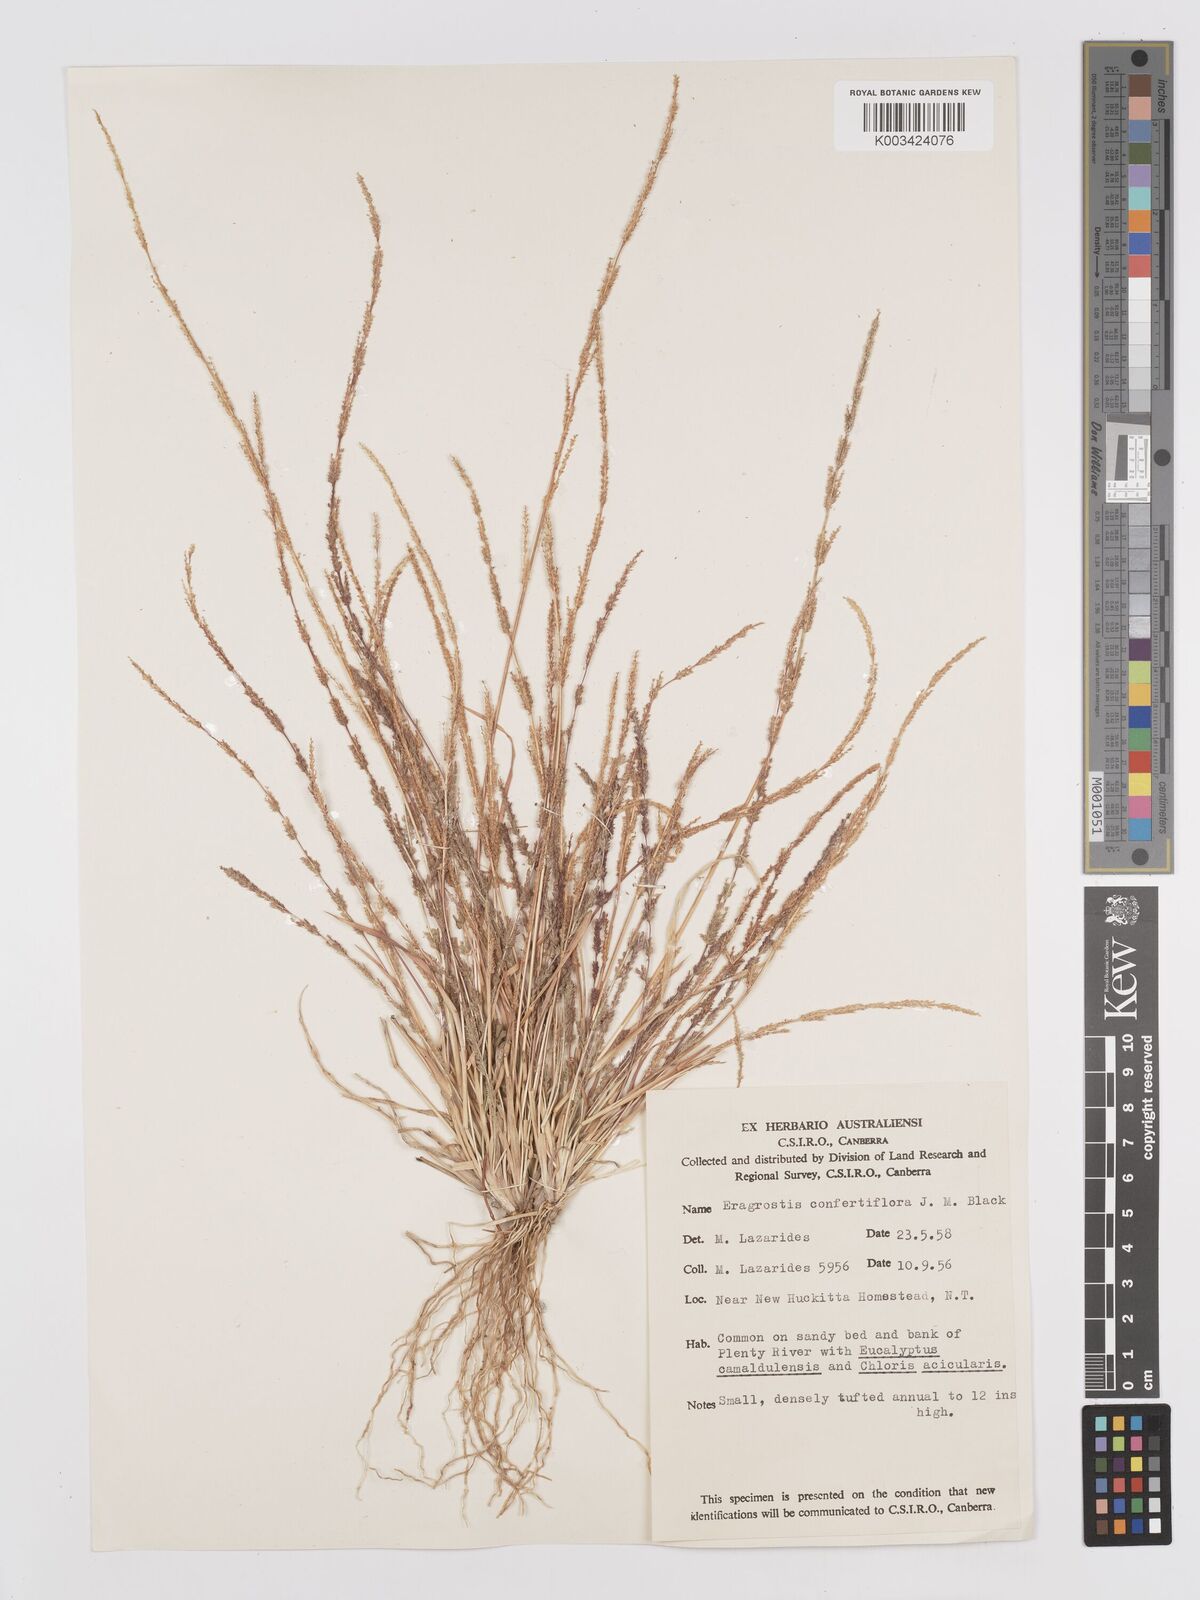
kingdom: Plantae
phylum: Tracheophyta
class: Liliopsida
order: Poales
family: Poaceae
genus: Eragrostis
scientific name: Eragrostis confertiflora
